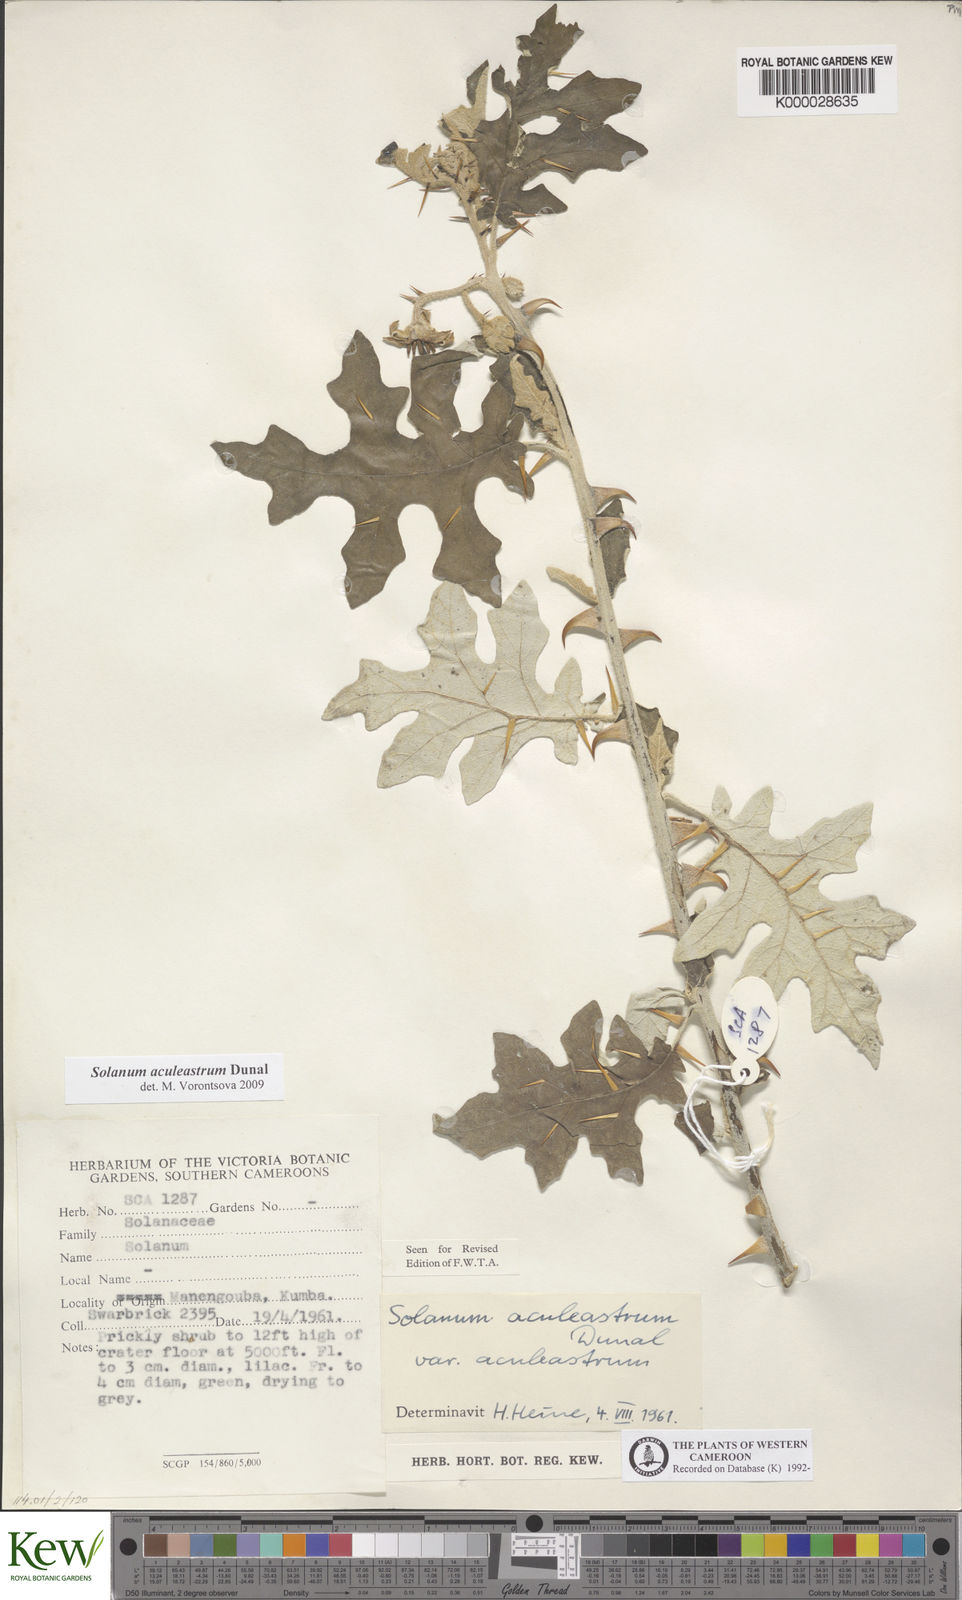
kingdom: Plantae
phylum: Tracheophyta
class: Magnoliopsida
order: Solanales
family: Solanaceae
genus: Solanum
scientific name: Solanum aculeastrum
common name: Goat bitter-apple
